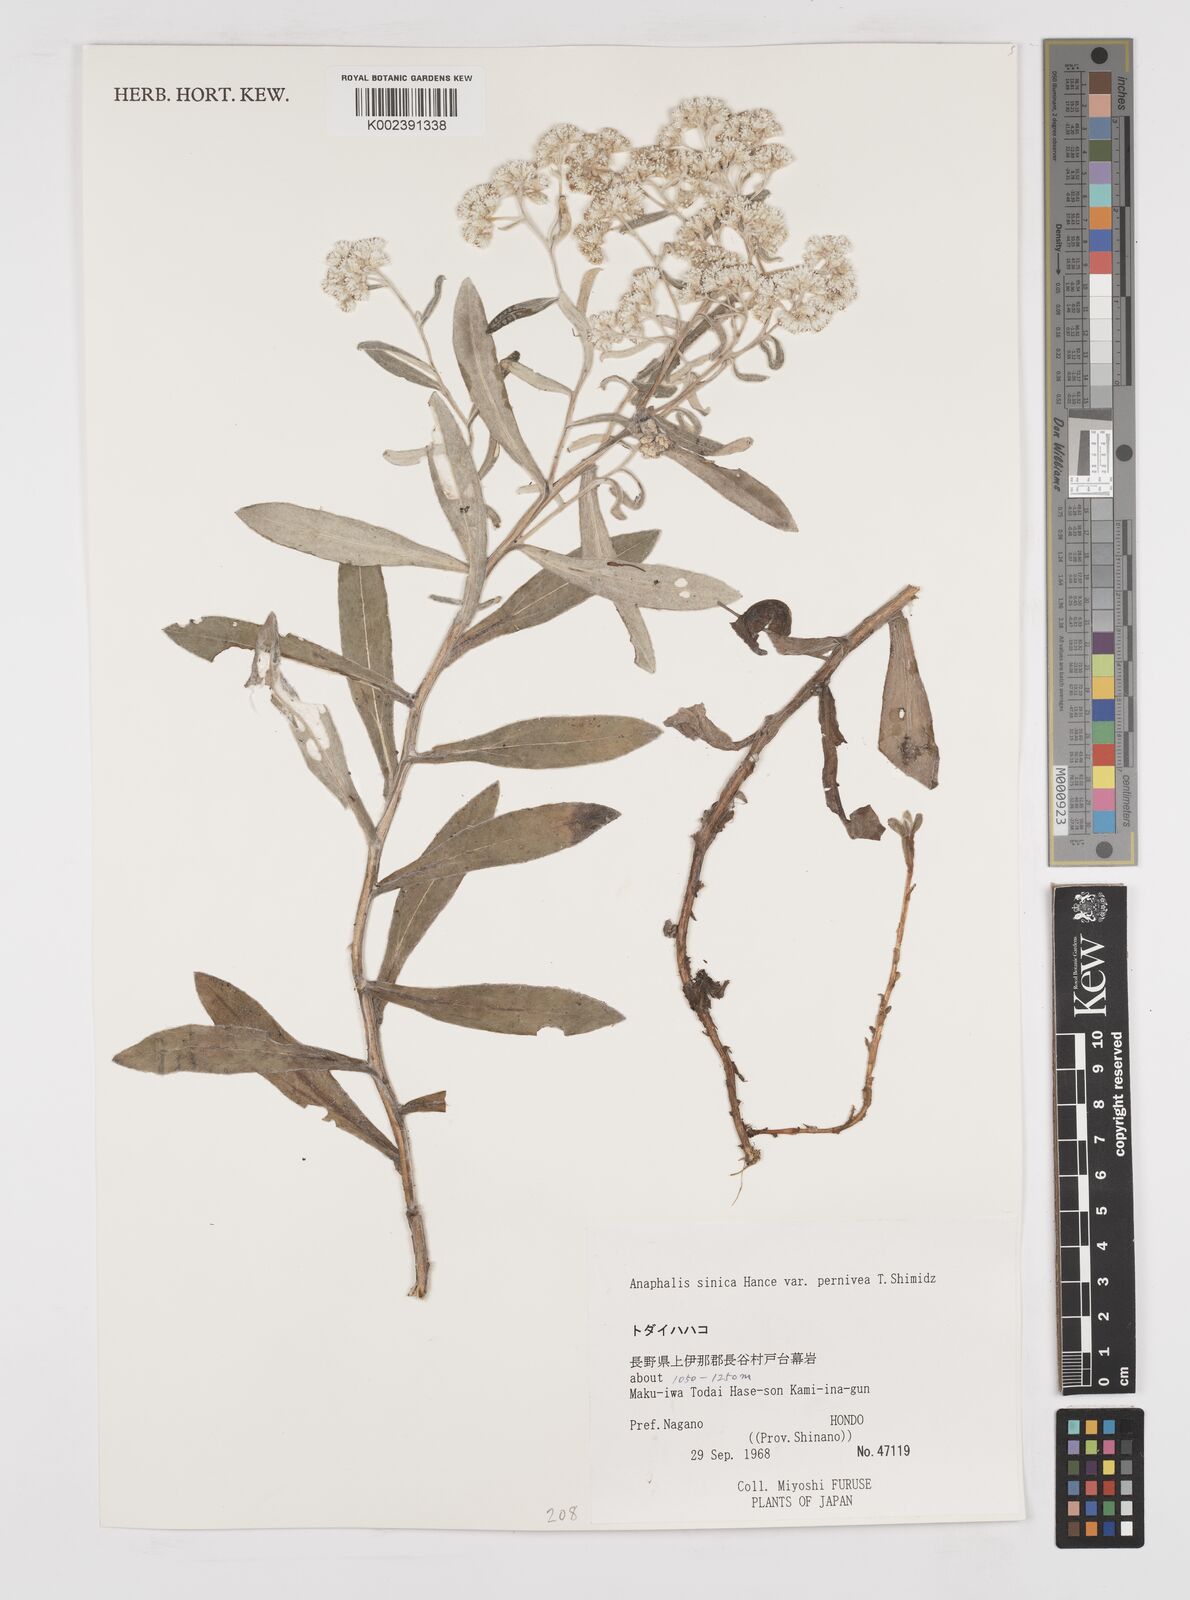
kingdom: Plantae
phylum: Tracheophyta
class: Magnoliopsida
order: Asterales
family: Asteraceae
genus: Anaphalis
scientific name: Anaphalis sinica
